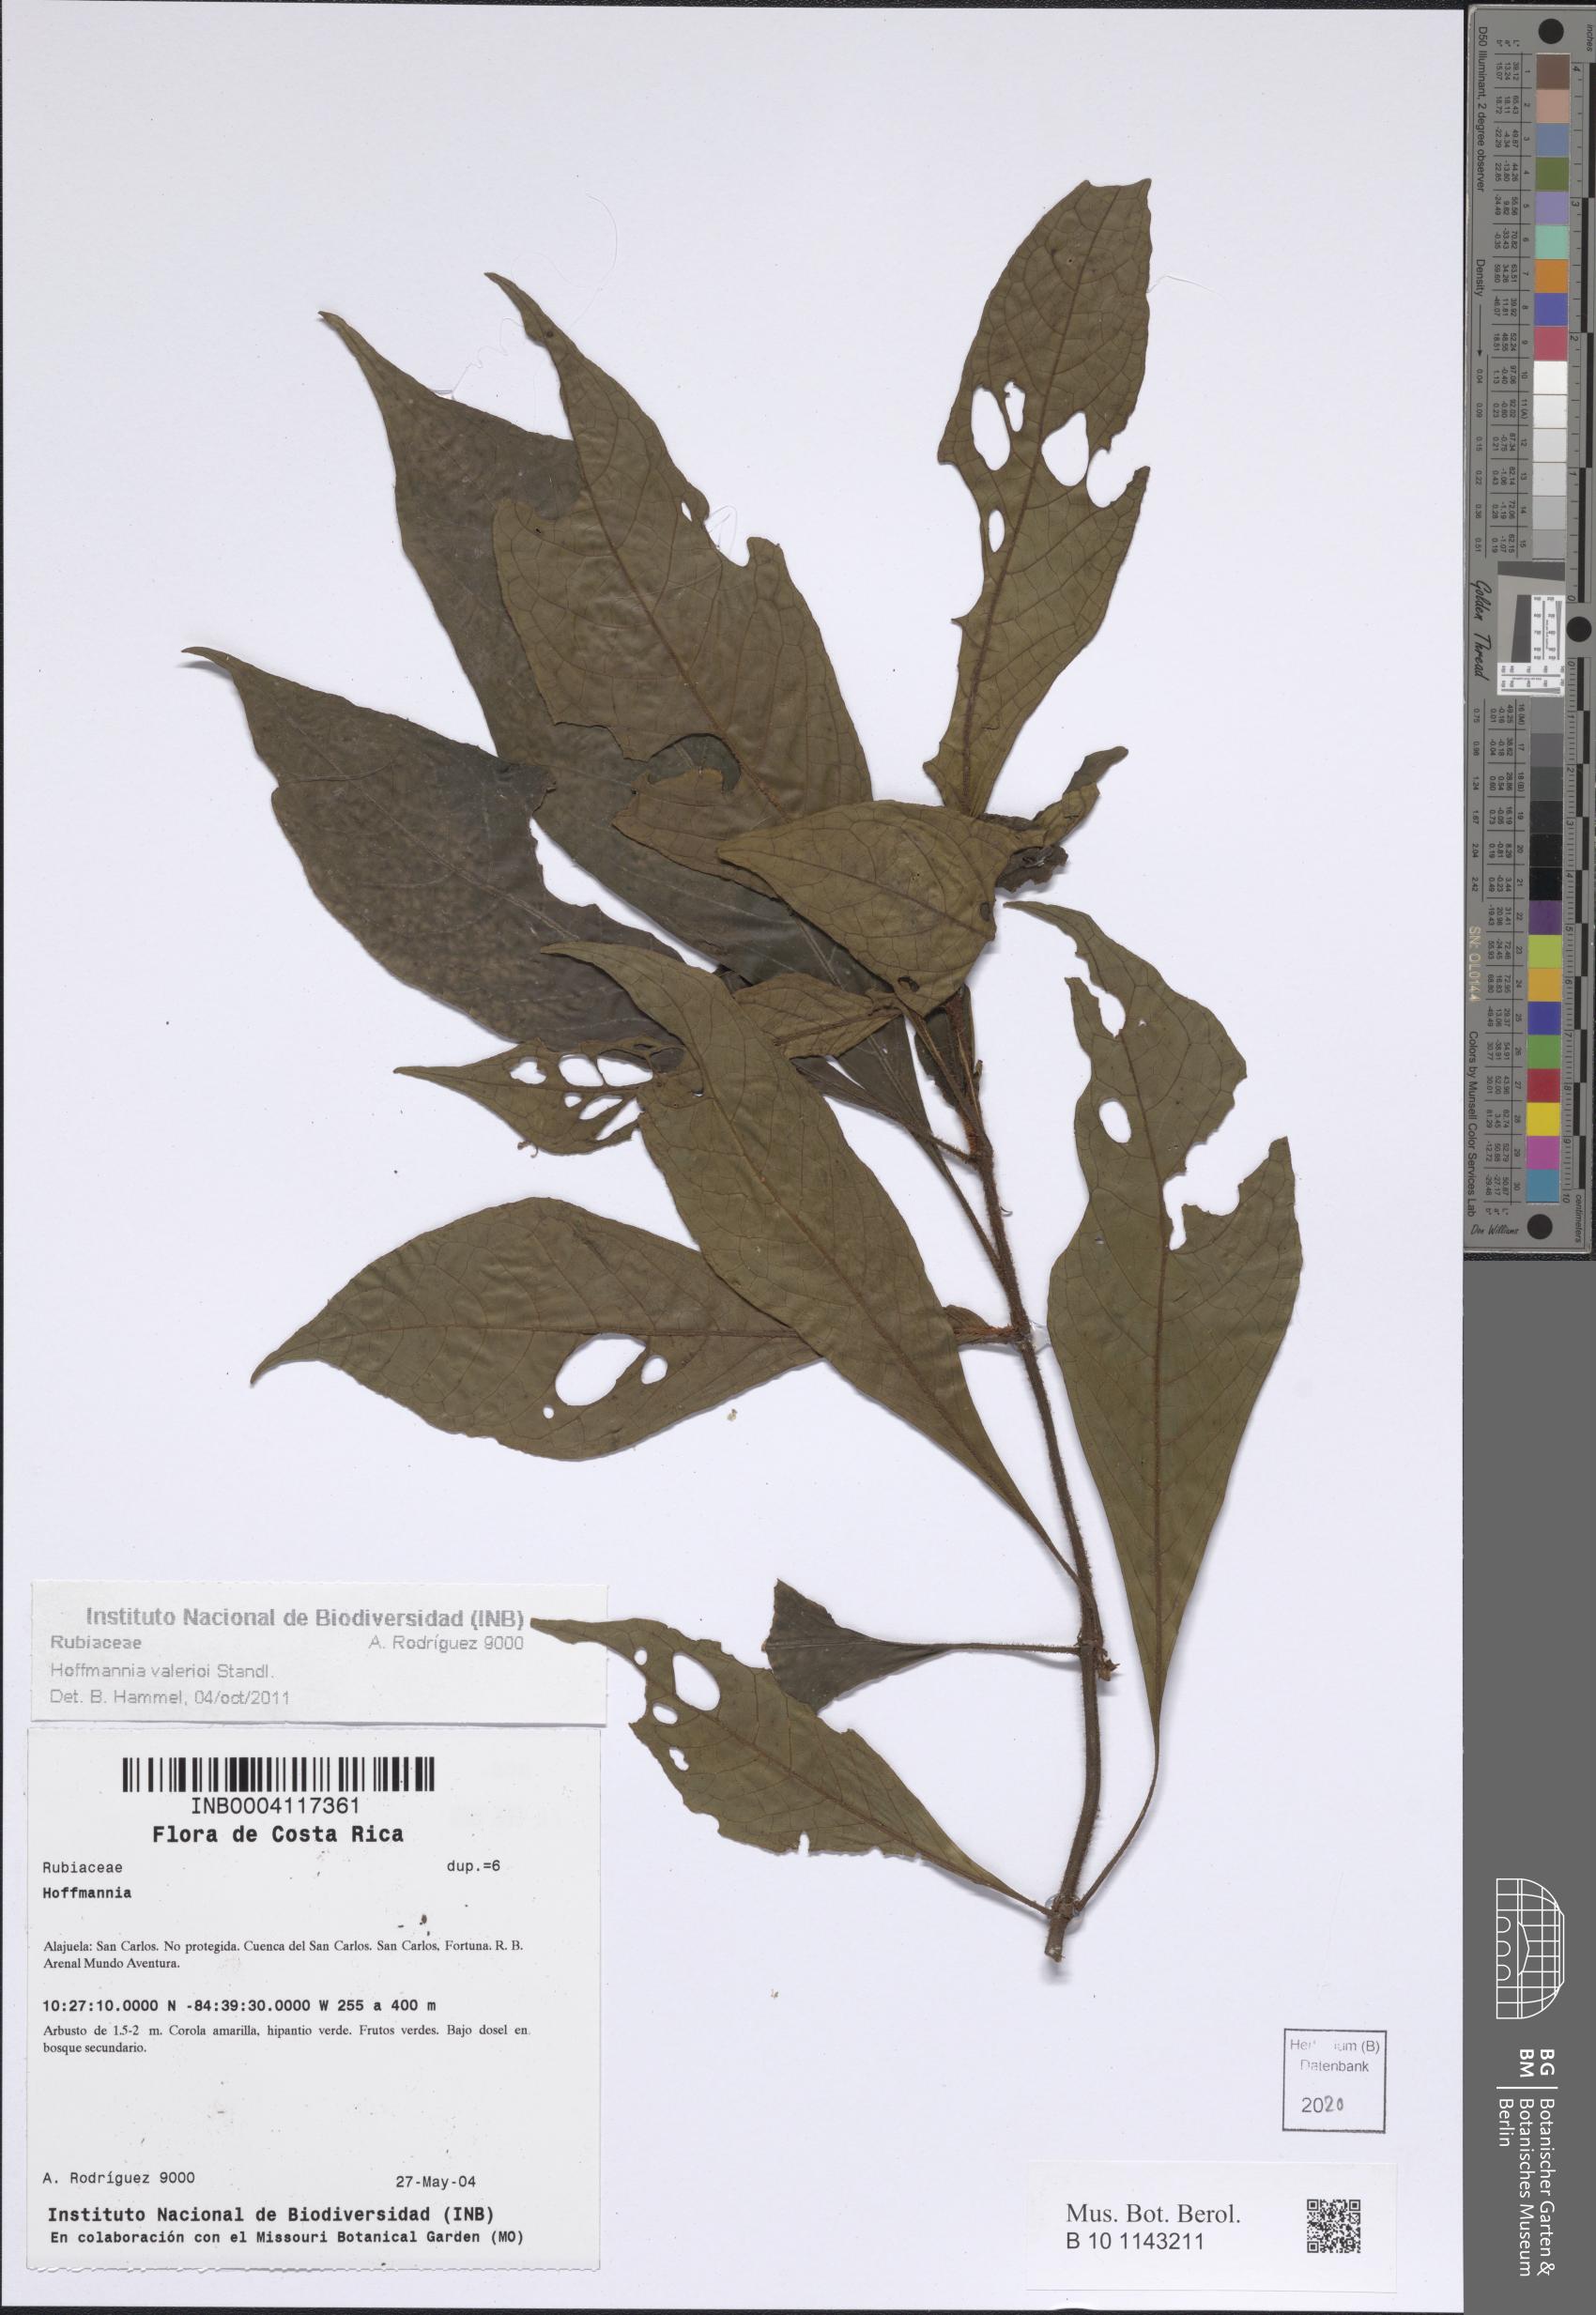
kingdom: Plantae
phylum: Tracheophyta
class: Magnoliopsida
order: Gentianales
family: Rubiaceae
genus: Hoffmannia
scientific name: Hoffmannia valerioi
